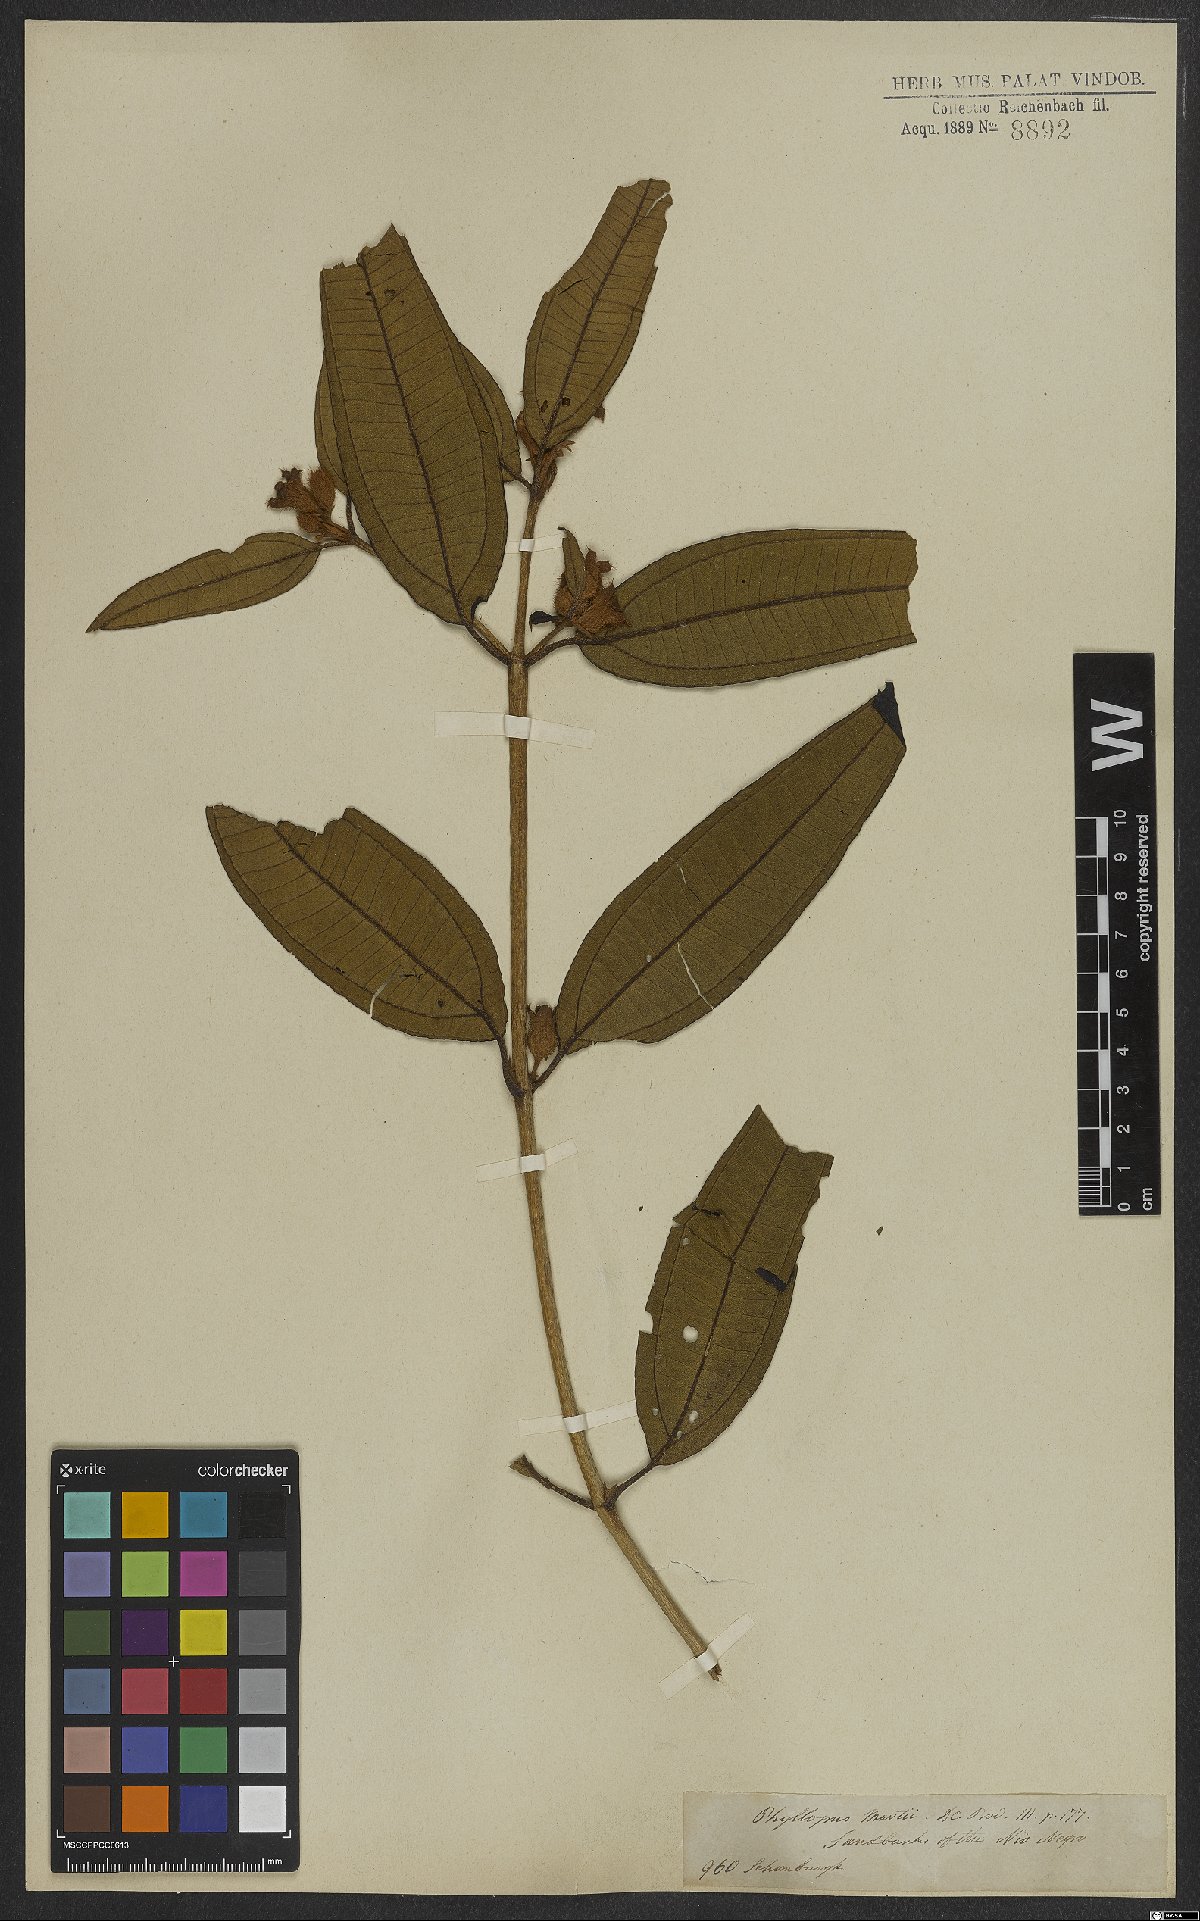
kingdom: Plantae
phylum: Tracheophyta
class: Magnoliopsida
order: Myrtales
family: Melastomataceae
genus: Henriettea
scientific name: Henriettea martiusii
